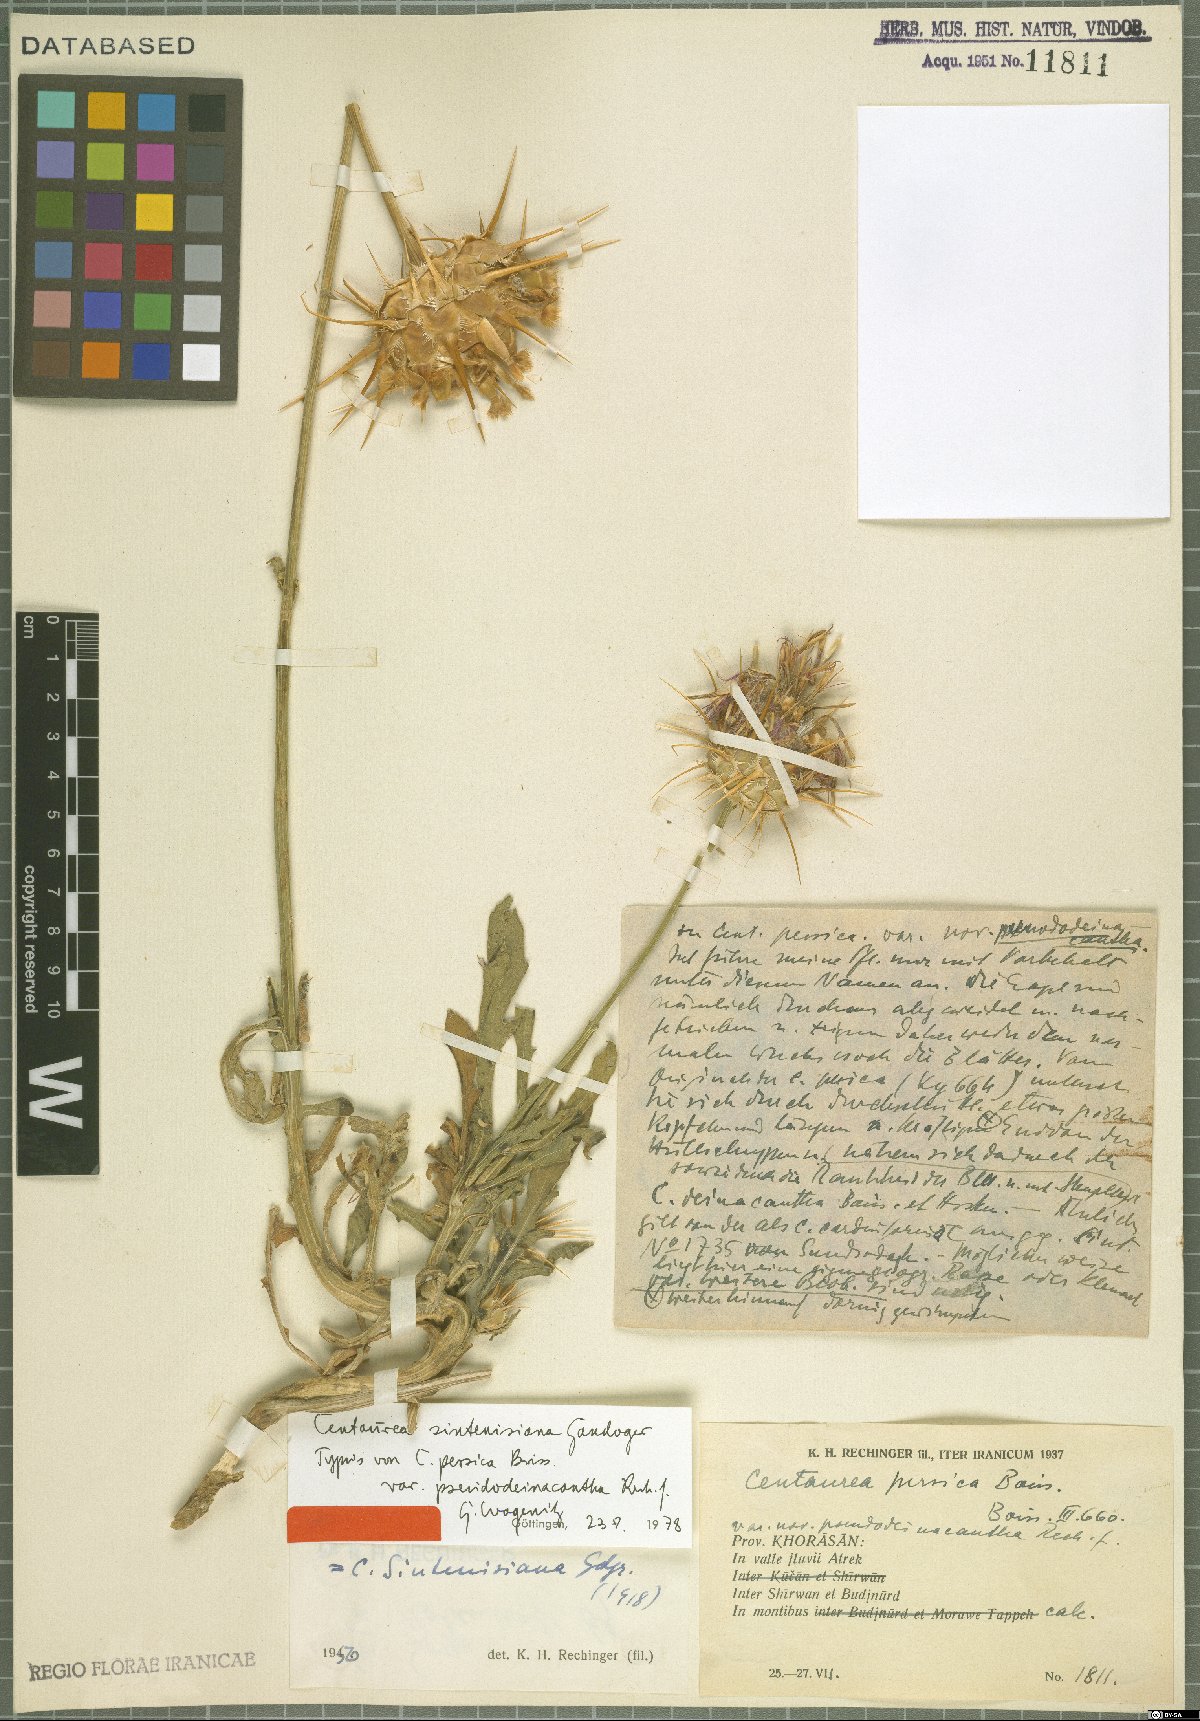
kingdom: Plantae
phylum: Tracheophyta
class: Magnoliopsida
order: Asterales
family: Asteraceae
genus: Psephellus
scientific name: Psephellus sintenisii
